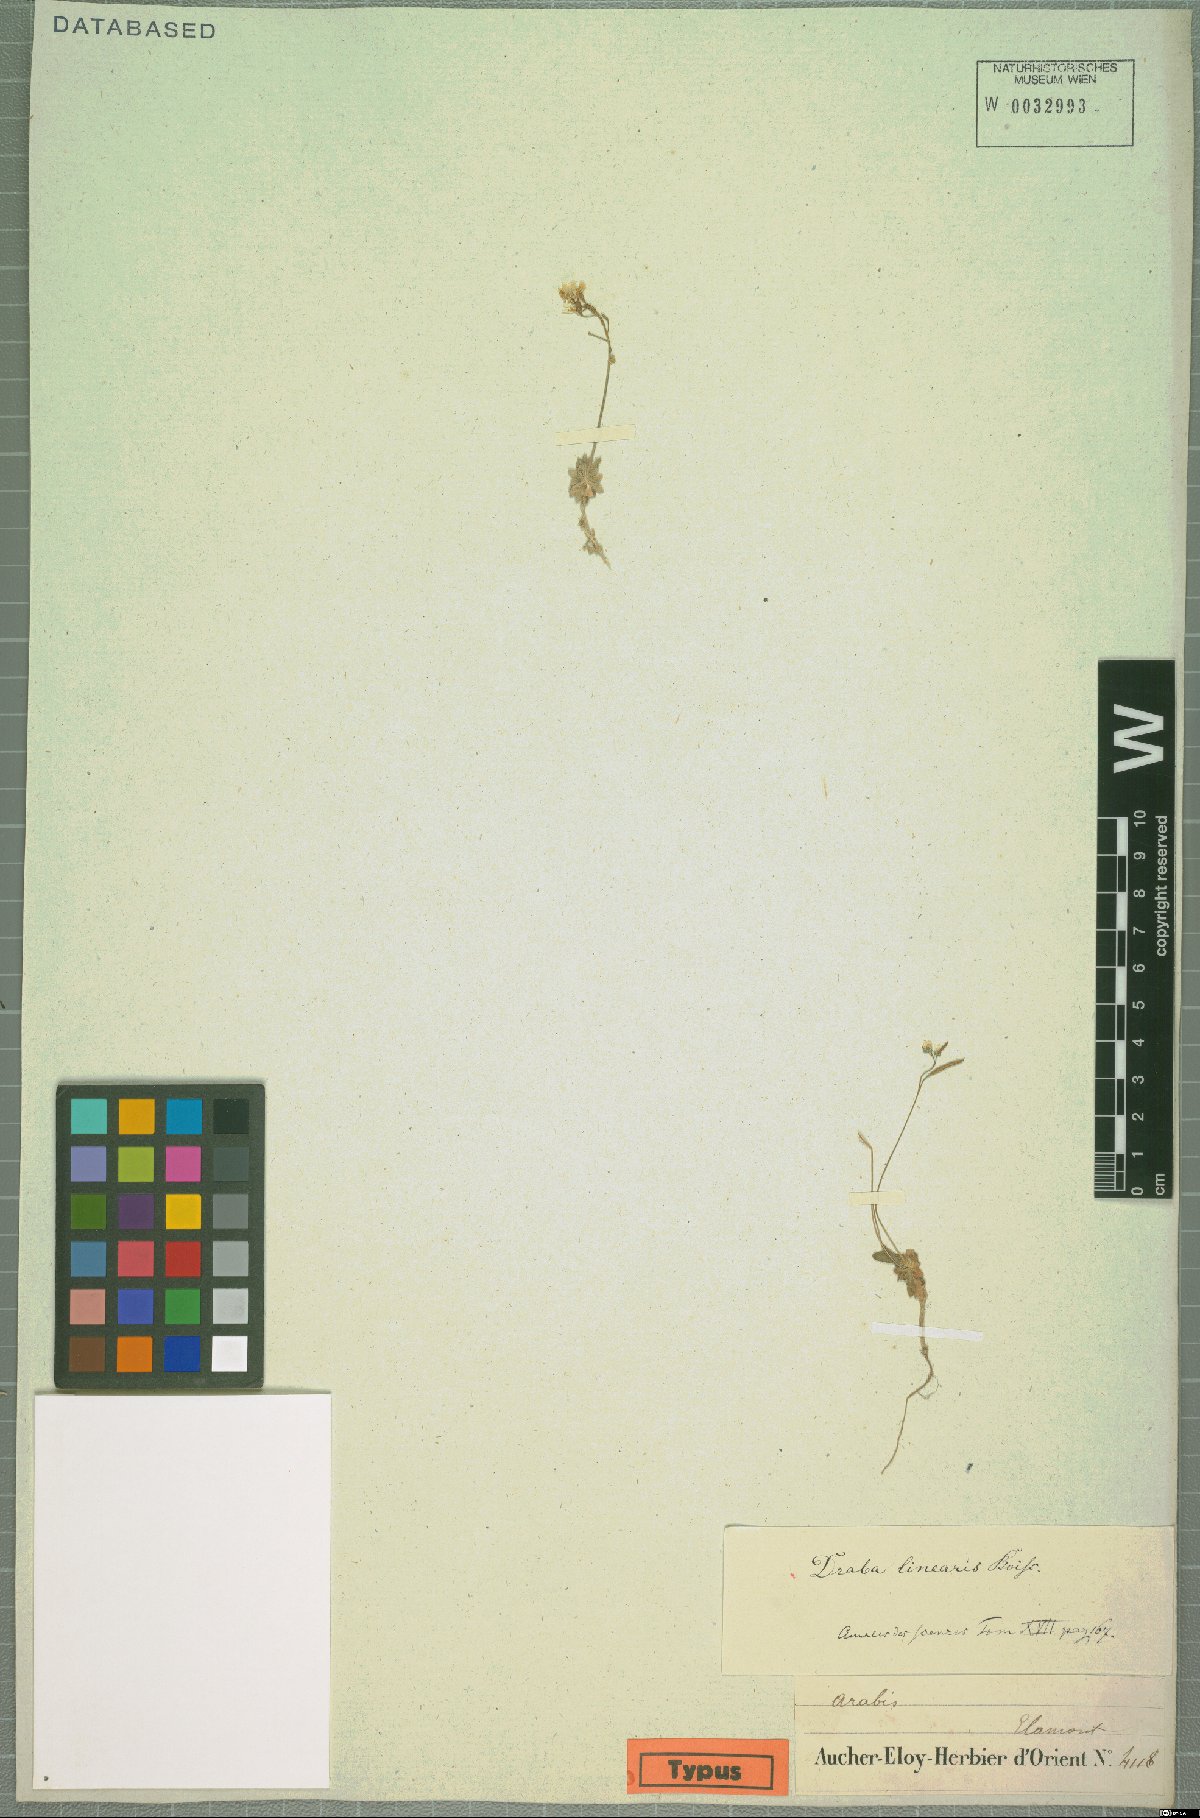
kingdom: Plantae
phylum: Tracheophyta
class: Magnoliopsida
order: Brassicales
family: Brassicaceae
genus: Draba
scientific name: Draba aucheri
